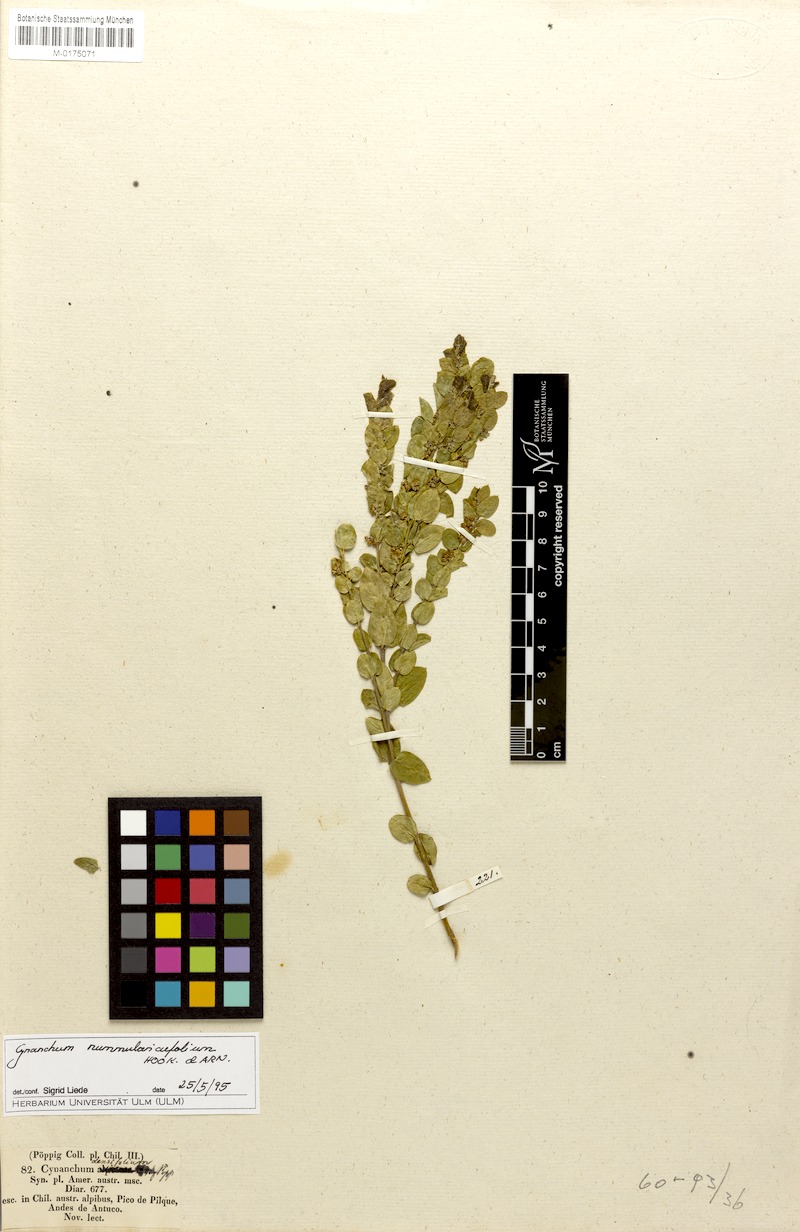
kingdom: Plantae
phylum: Tracheophyta
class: Magnoliopsida
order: Gentianales
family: Apocynaceae
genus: Diplolepis
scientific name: Diplolepis nummulariifolia
